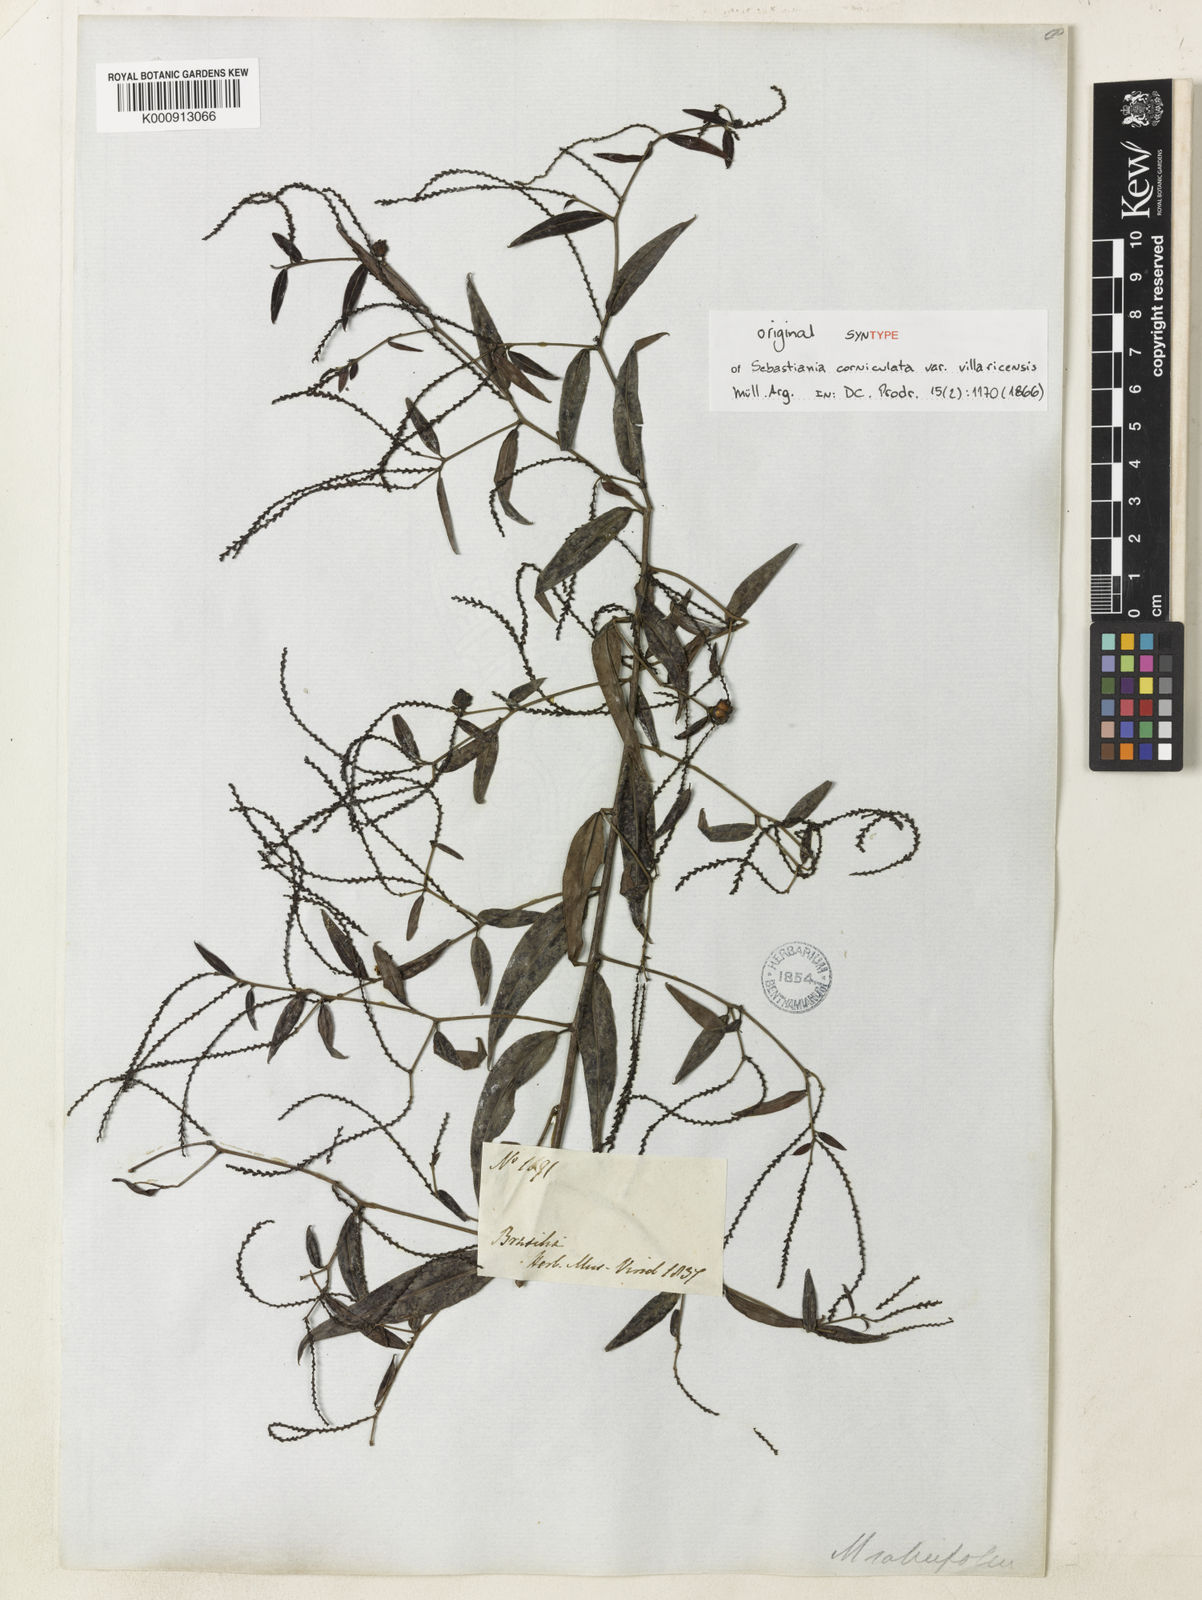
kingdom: Plantae
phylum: Tracheophyta
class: Magnoliopsida
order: Malpighiales
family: Euphorbiaceae
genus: Microstachys
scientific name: Microstachys corniculata
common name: Hato tejas
